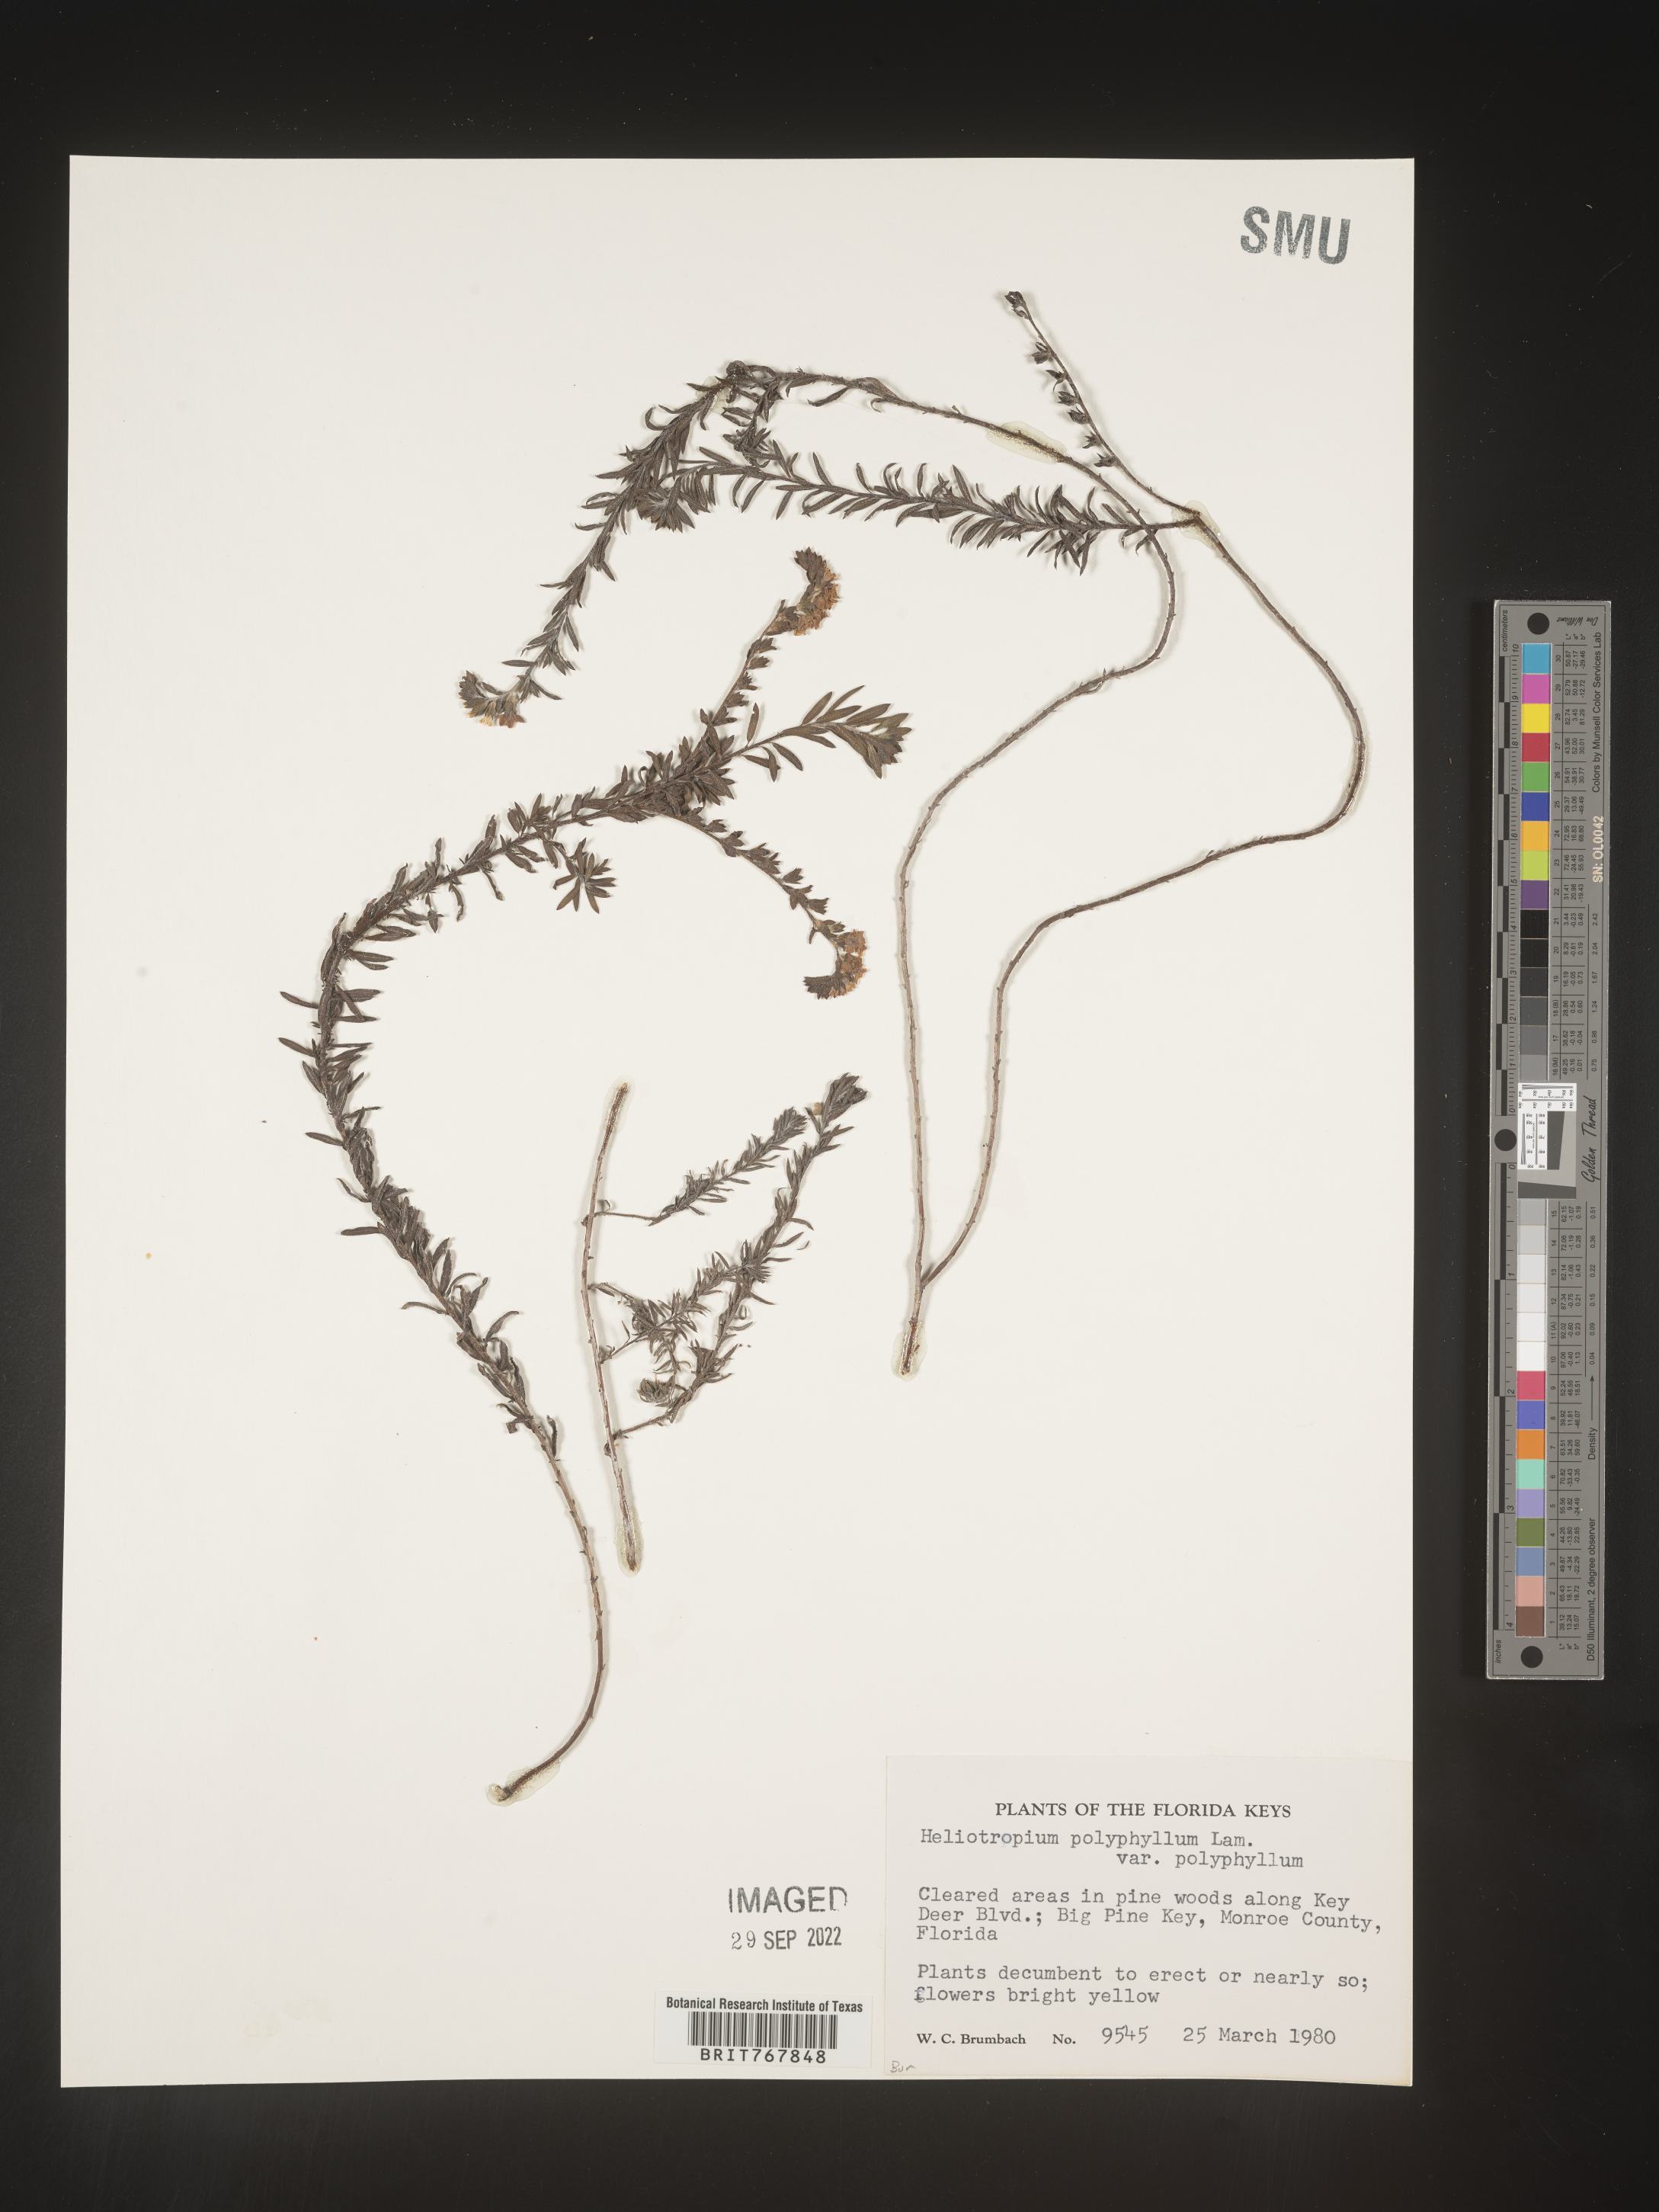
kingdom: Plantae
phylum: Tracheophyta
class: Magnoliopsida
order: Boraginales
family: Heliotropiaceae
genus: Heliotropium
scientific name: Heliotropium
